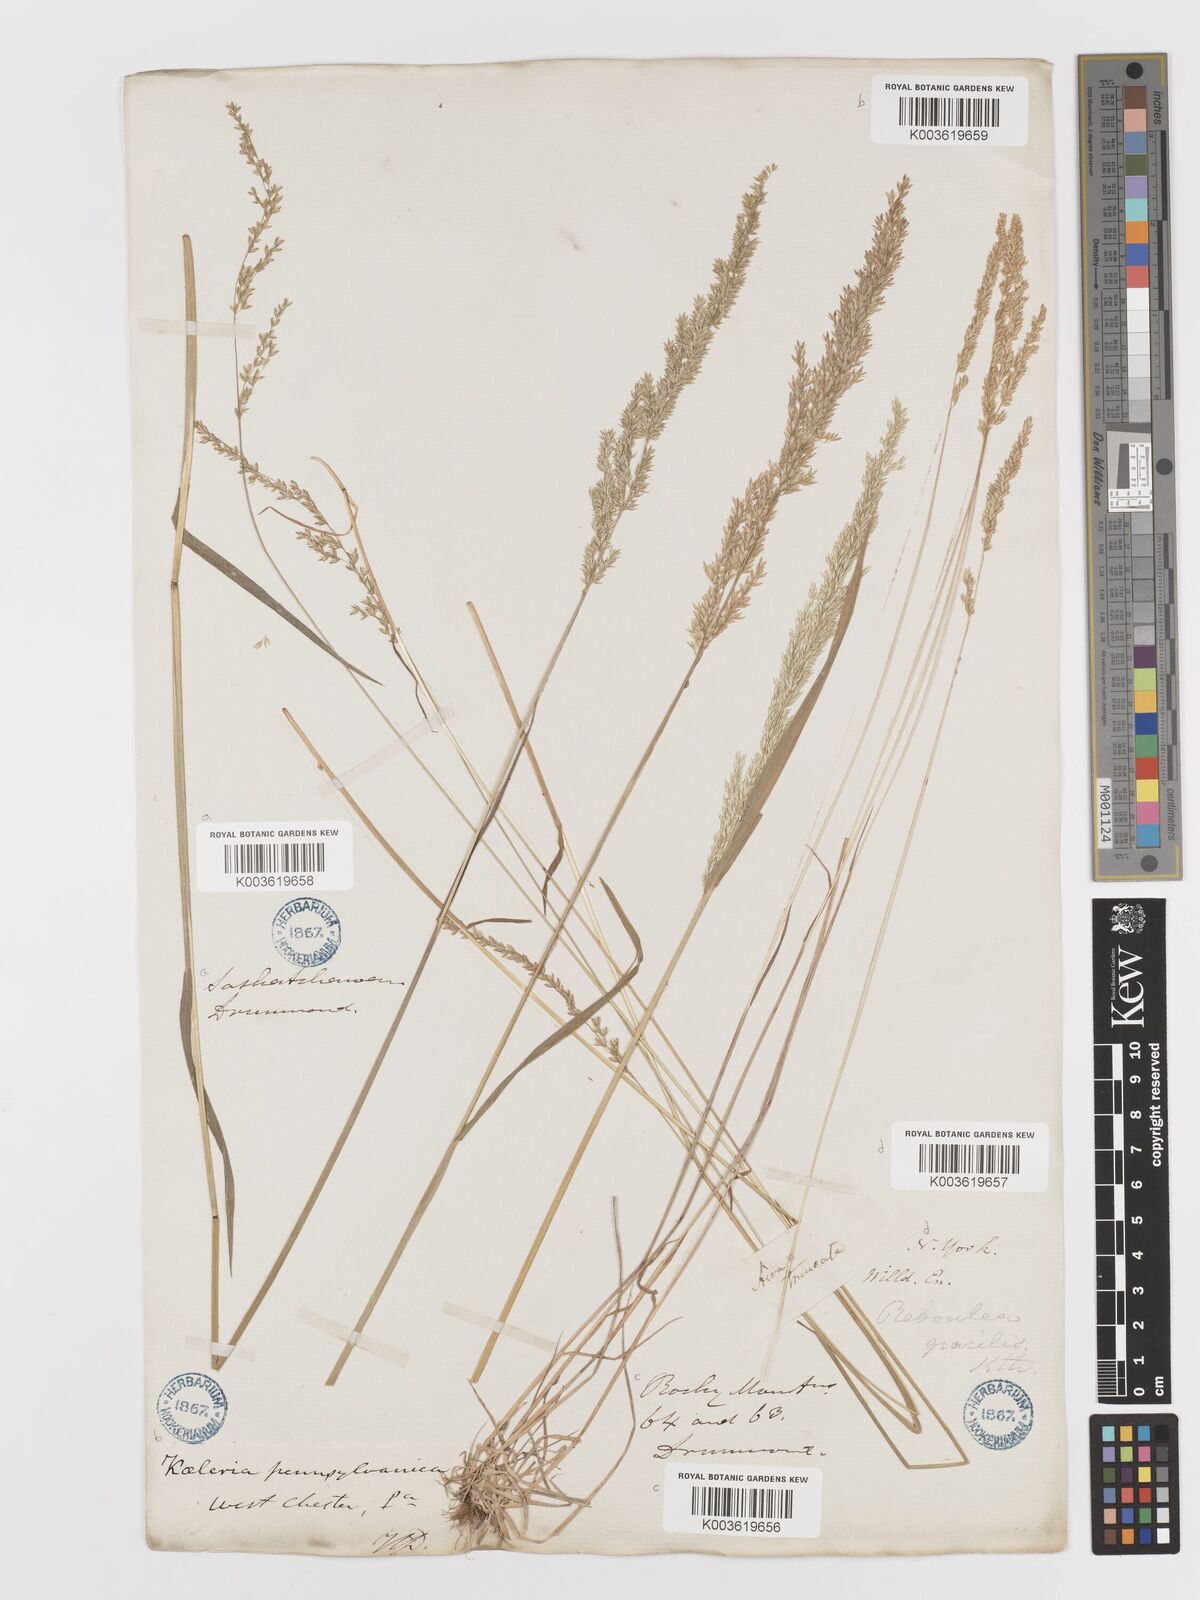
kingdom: Plantae
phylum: Tracheophyta
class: Liliopsida
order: Poales
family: Poaceae
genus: Sphenopholis
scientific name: Sphenopholis obtusata
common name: Prairie grass
